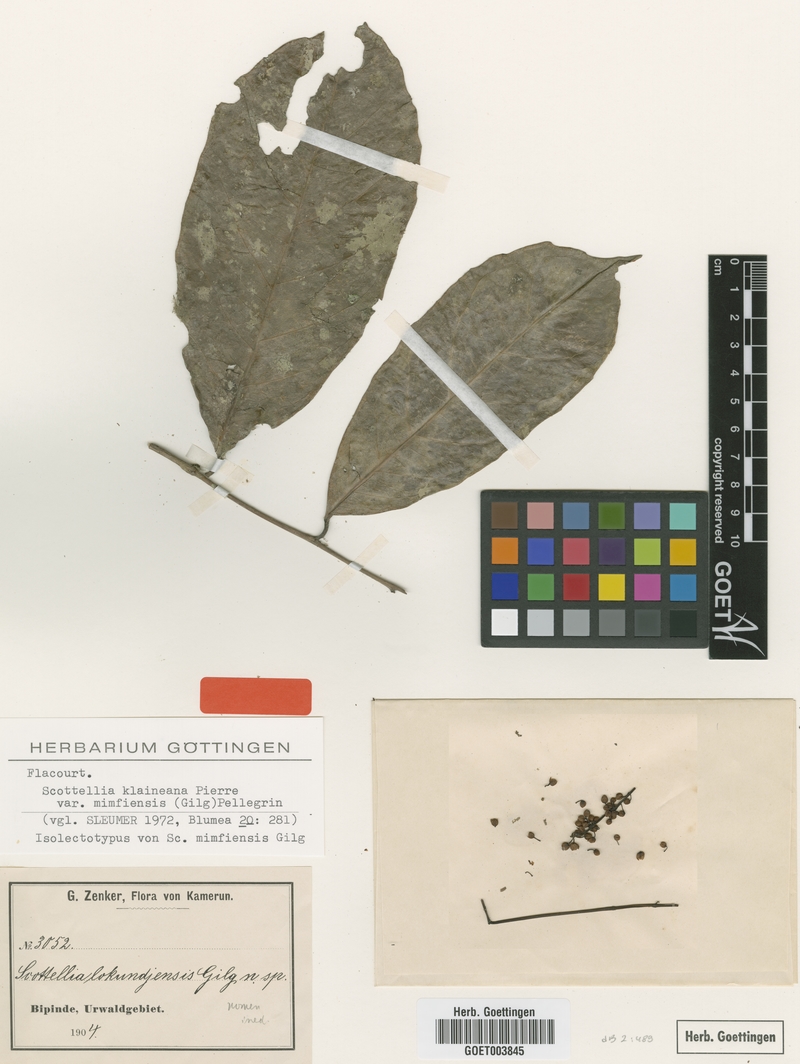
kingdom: Plantae
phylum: Tracheophyta
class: Magnoliopsida
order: Malpighiales
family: Achariaceae
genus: Scottellia
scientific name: Scottellia klaineana
